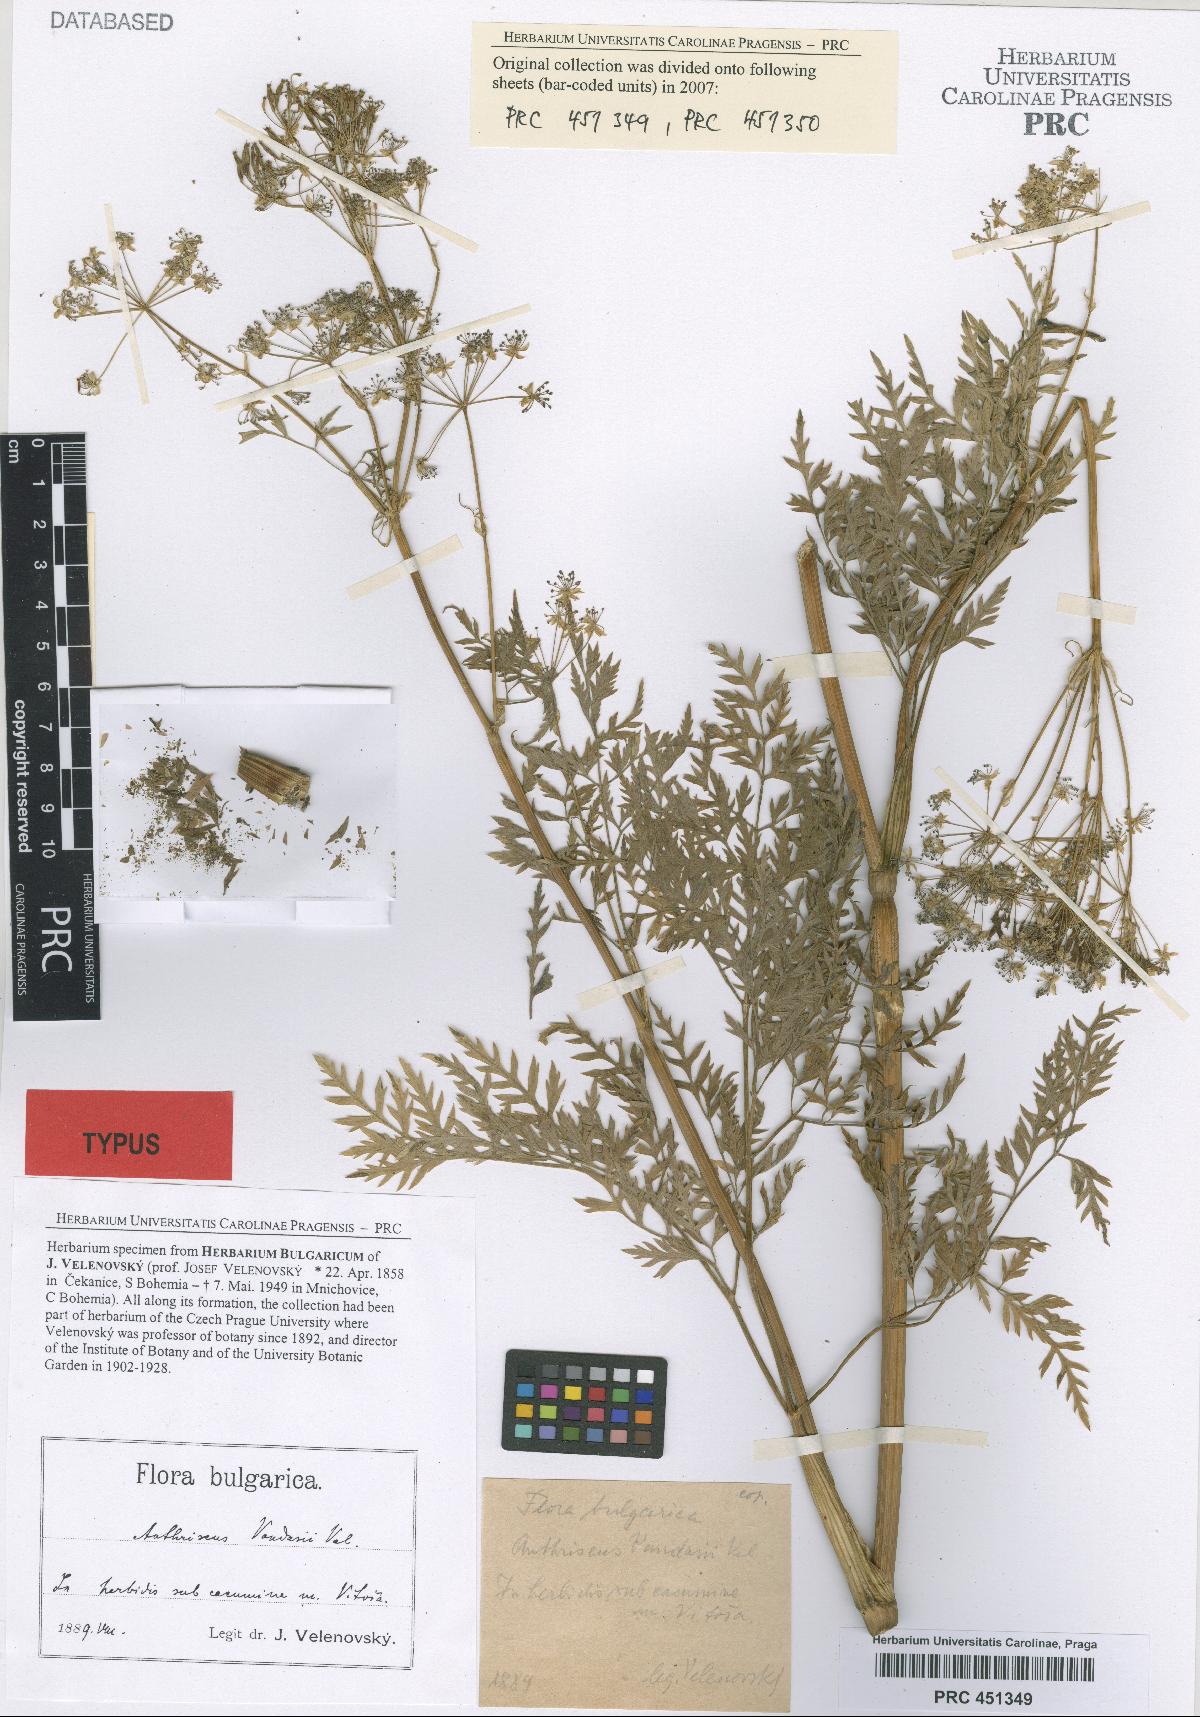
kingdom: Plantae
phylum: Tracheophyta
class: Magnoliopsida
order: Apiales
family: Apiaceae
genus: Anthriscus
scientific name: Anthriscus fumarioides
